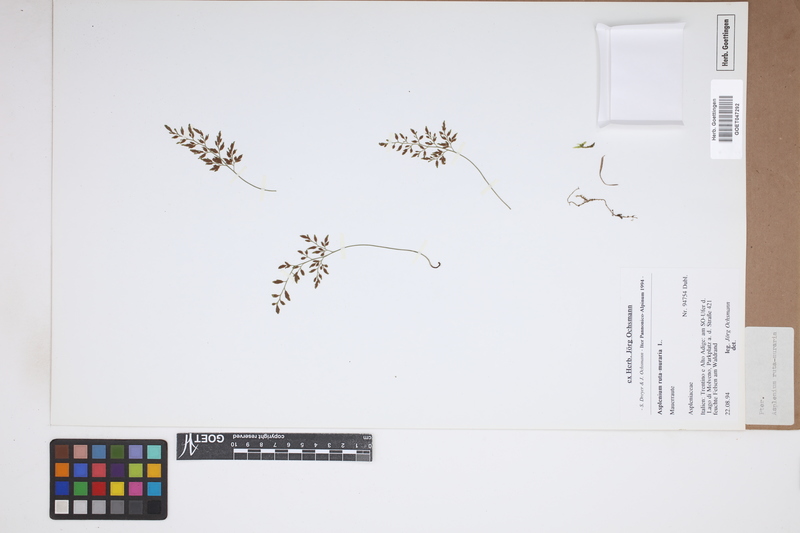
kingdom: Plantae
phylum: Tracheophyta
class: Polypodiopsida
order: Polypodiales
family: Aspleniaceae
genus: Asplenium
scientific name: Asplenium ruta-muraria
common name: Wall-rue
